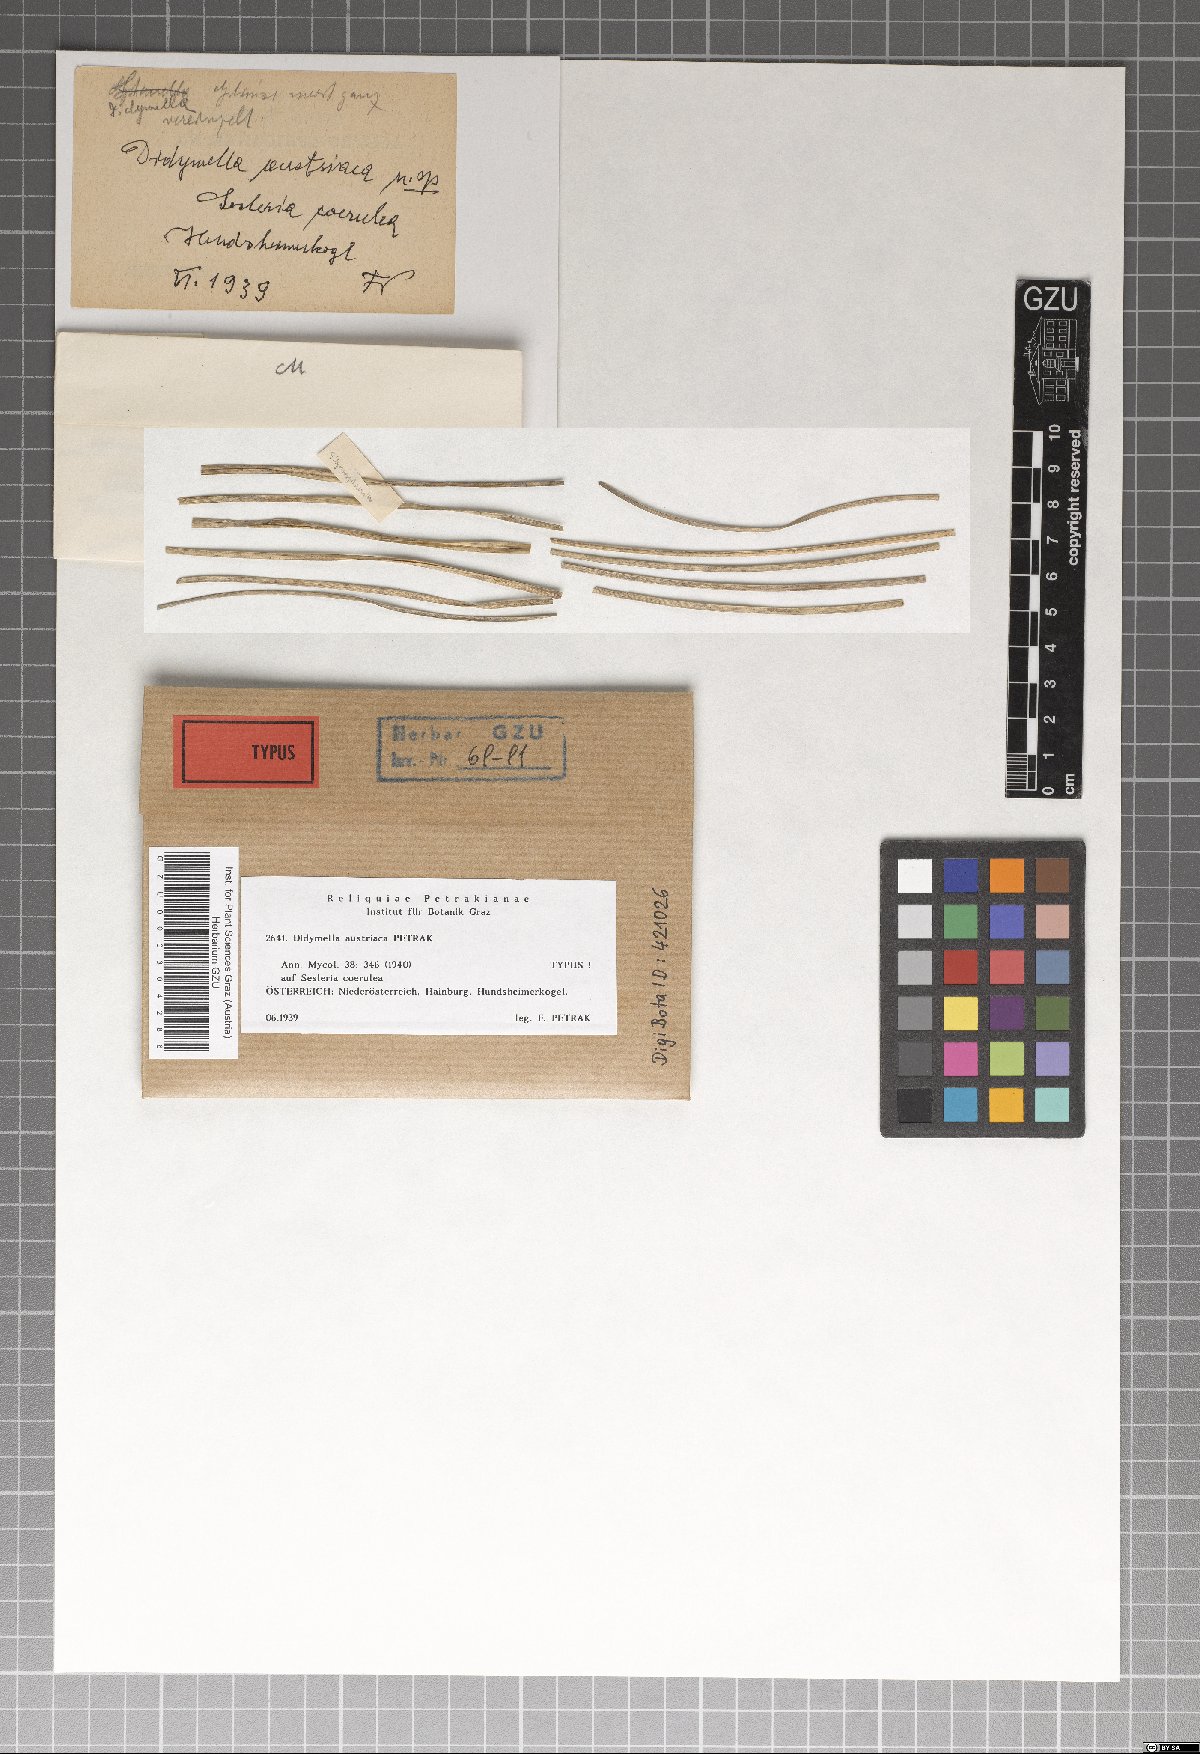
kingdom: Fungi
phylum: Ascomycota
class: Dothideomycetes
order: Pleosporales
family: Didymellaceae
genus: Didymella
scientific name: Didymella austriaca
